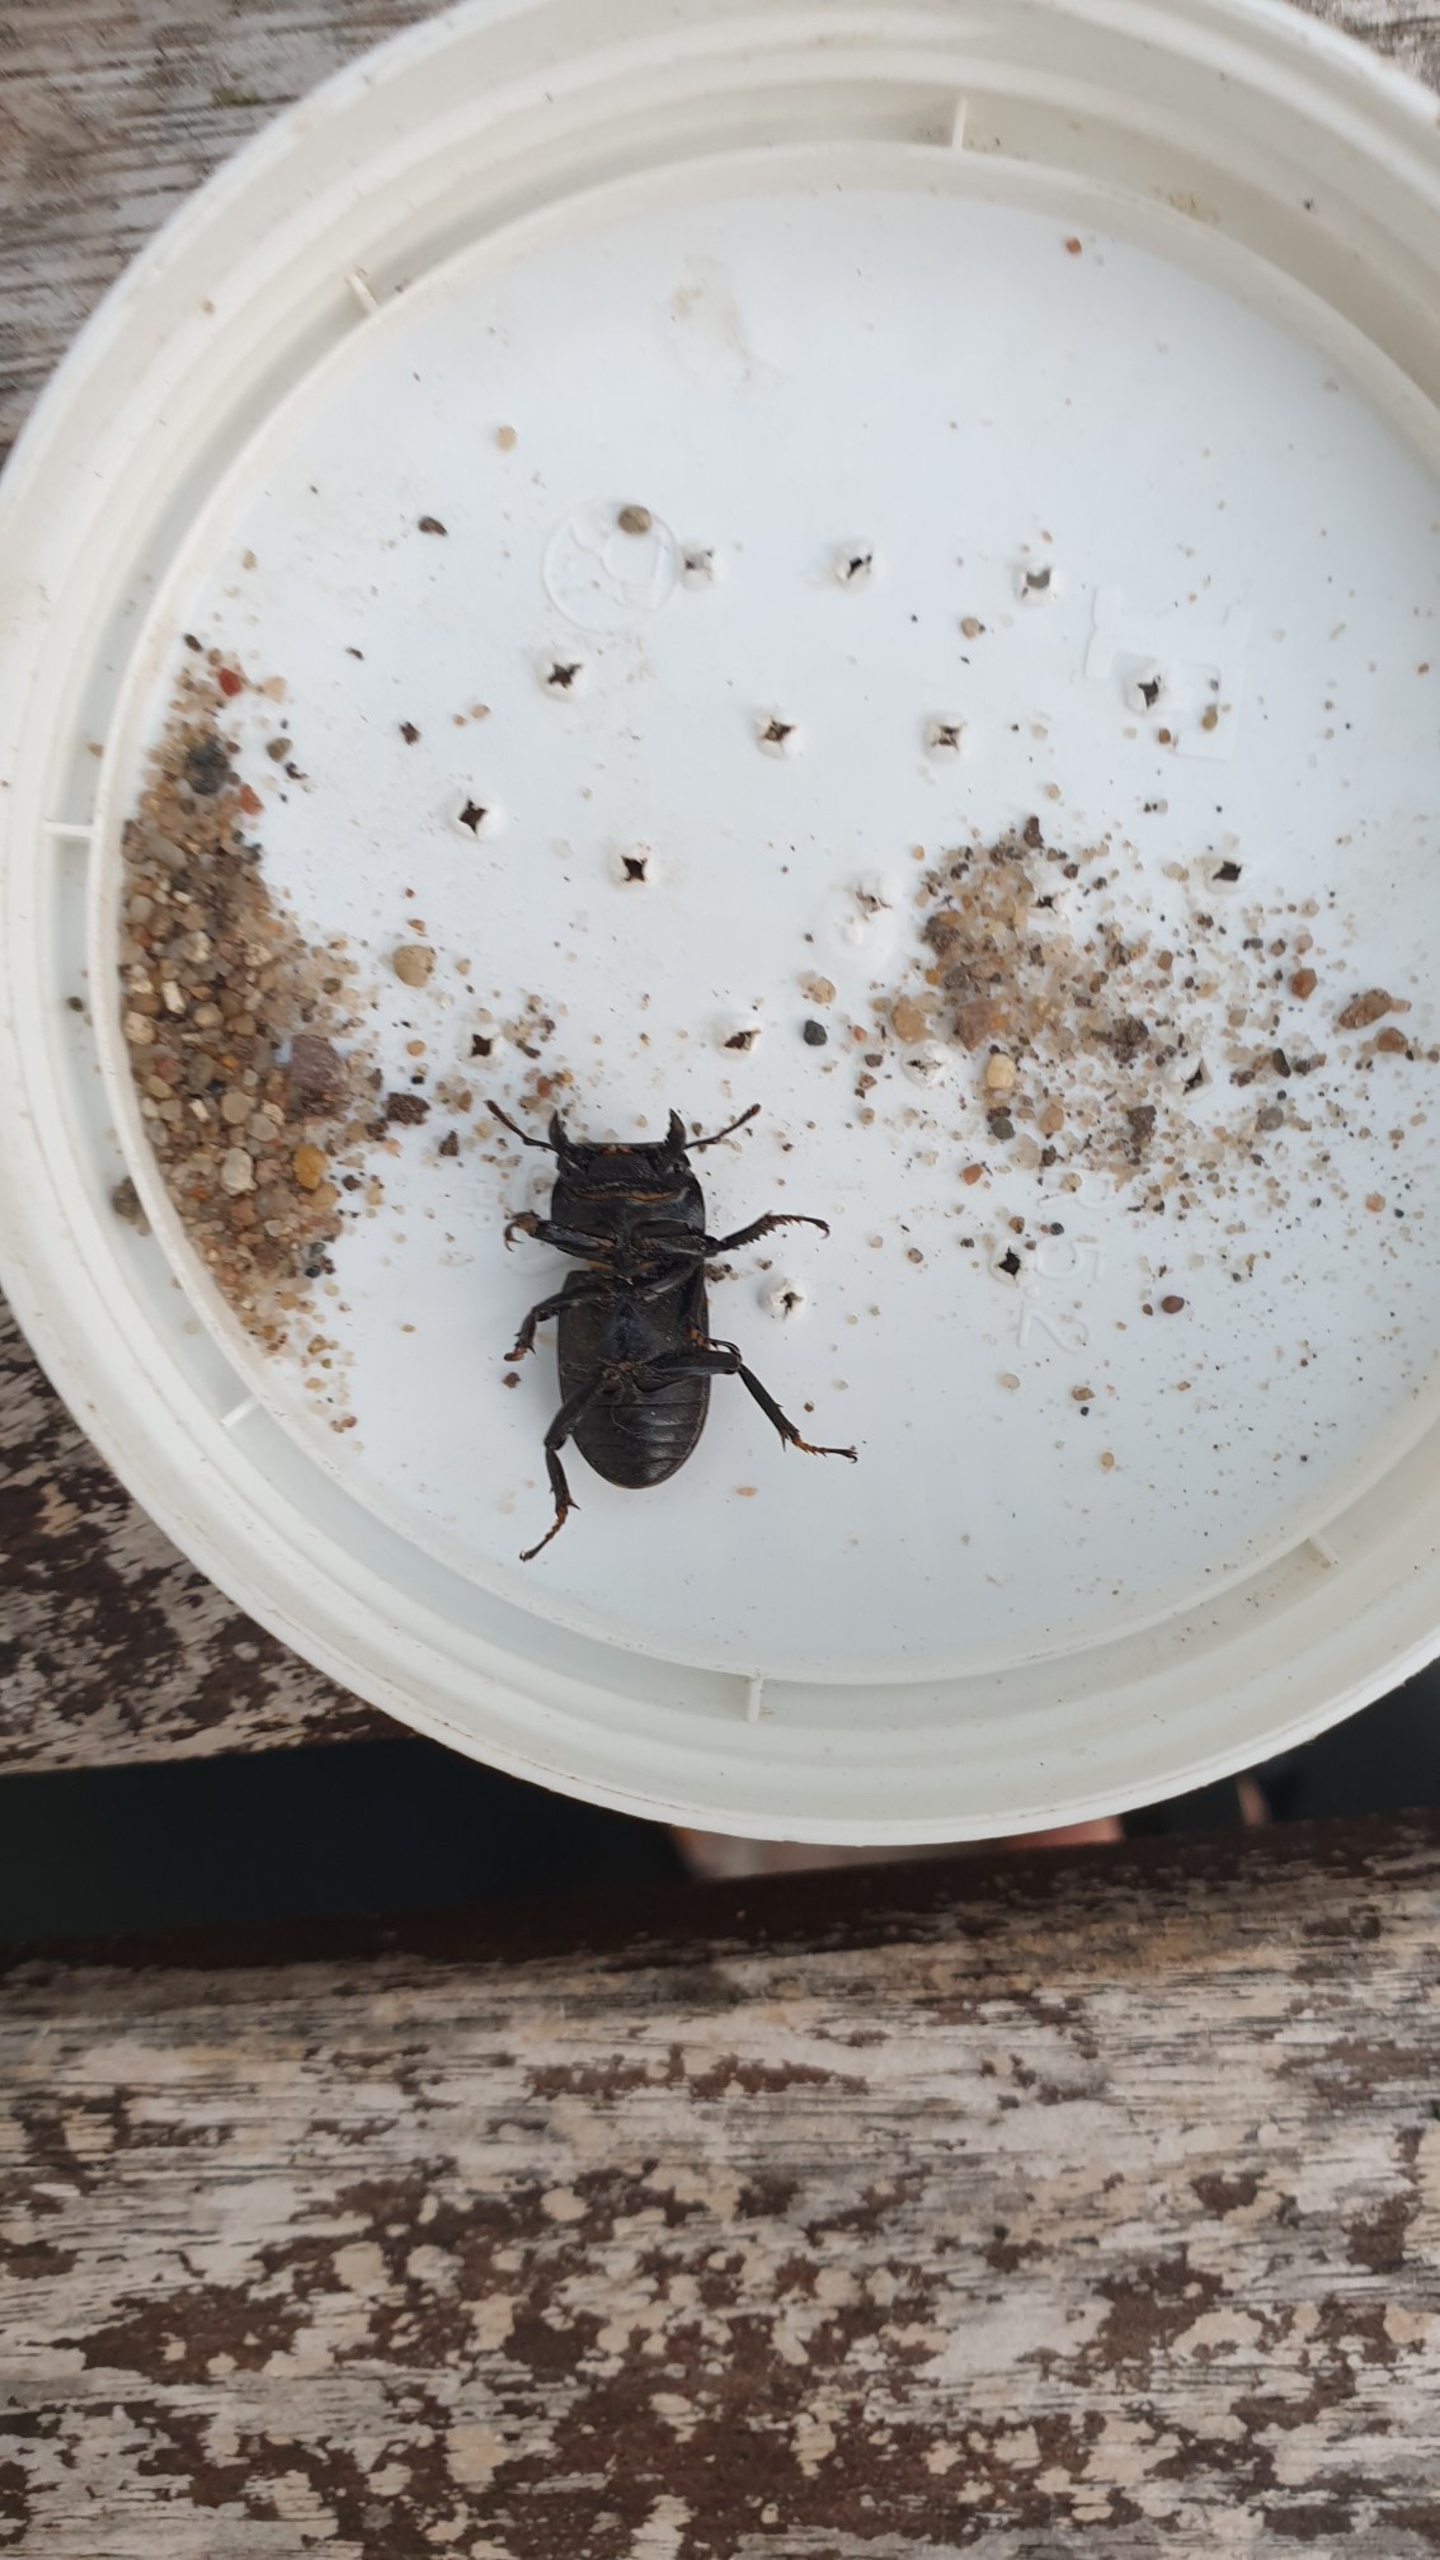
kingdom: Animalia
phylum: Arthropoda
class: Insecta
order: Coleoptera
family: Lucanidae
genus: Dorcus
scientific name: Dorcus parallelipipedus
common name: Bøghjort
